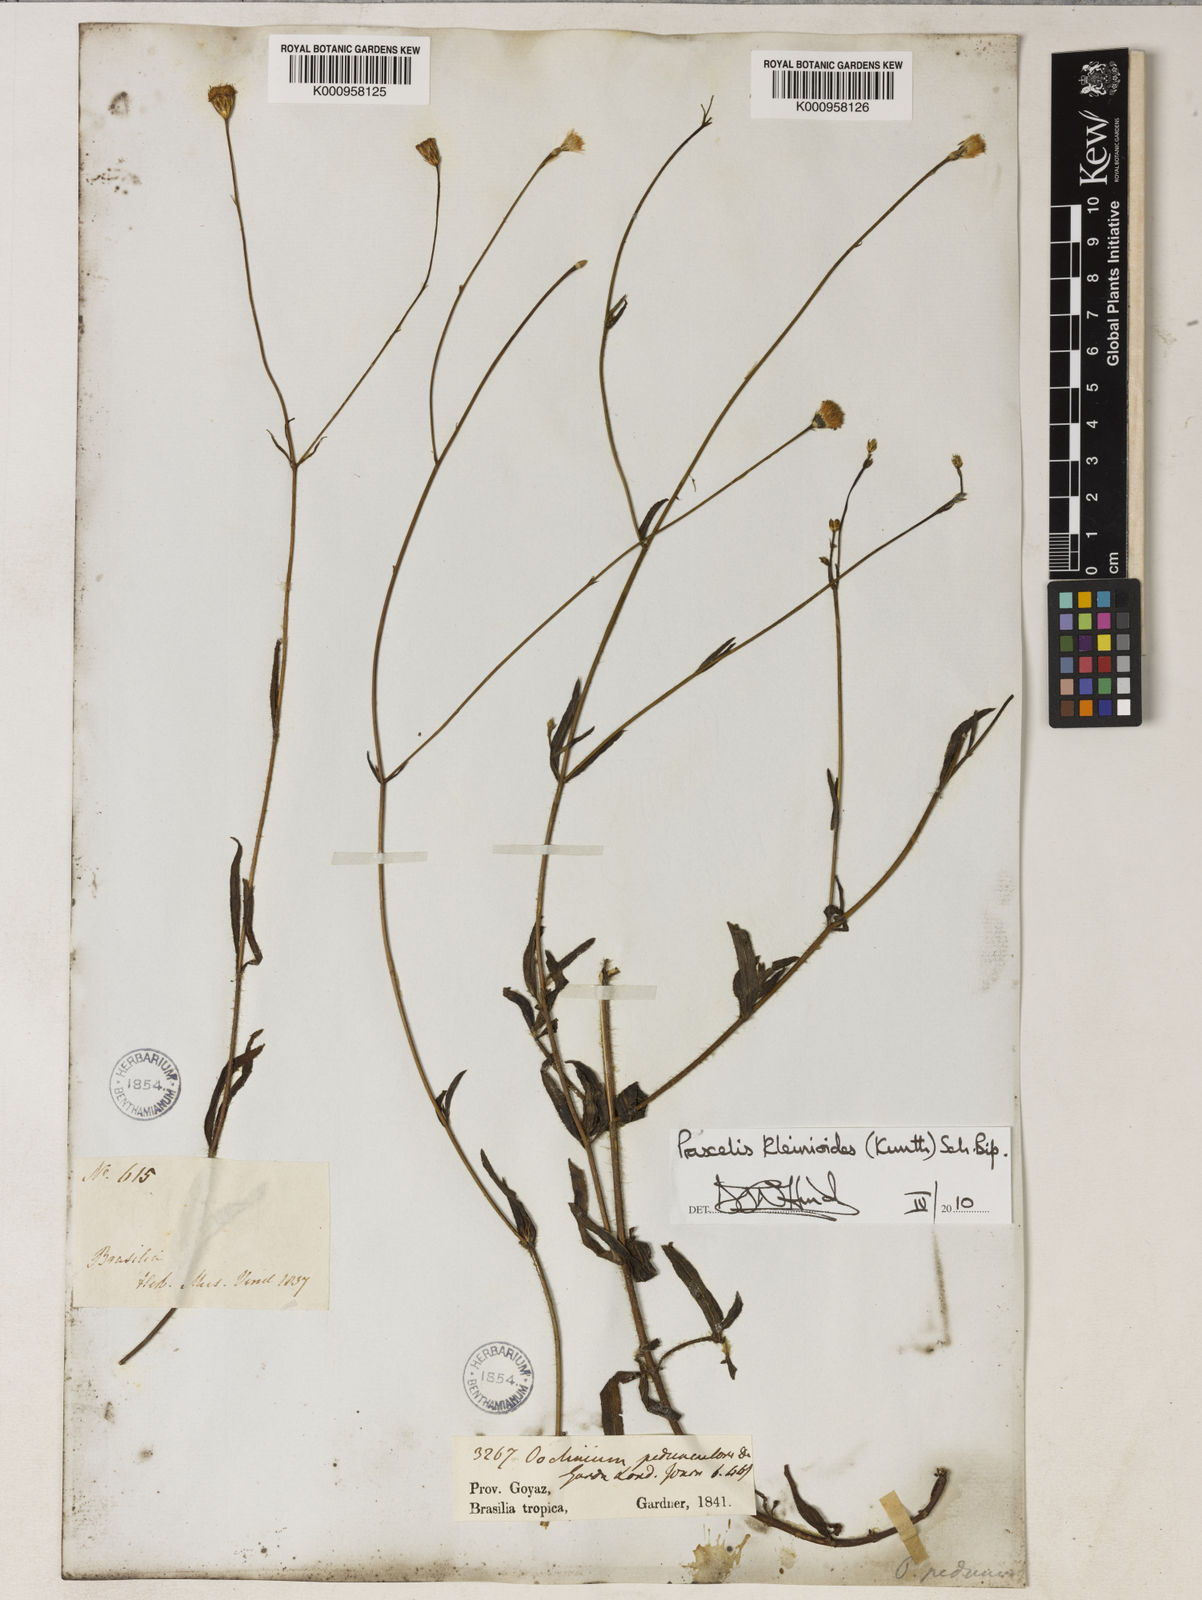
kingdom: Plantae
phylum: Tracheophyta
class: Magnoliopsida
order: Asterales
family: Asteraceae
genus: Praxelis
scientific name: Praxelis kleinioides
